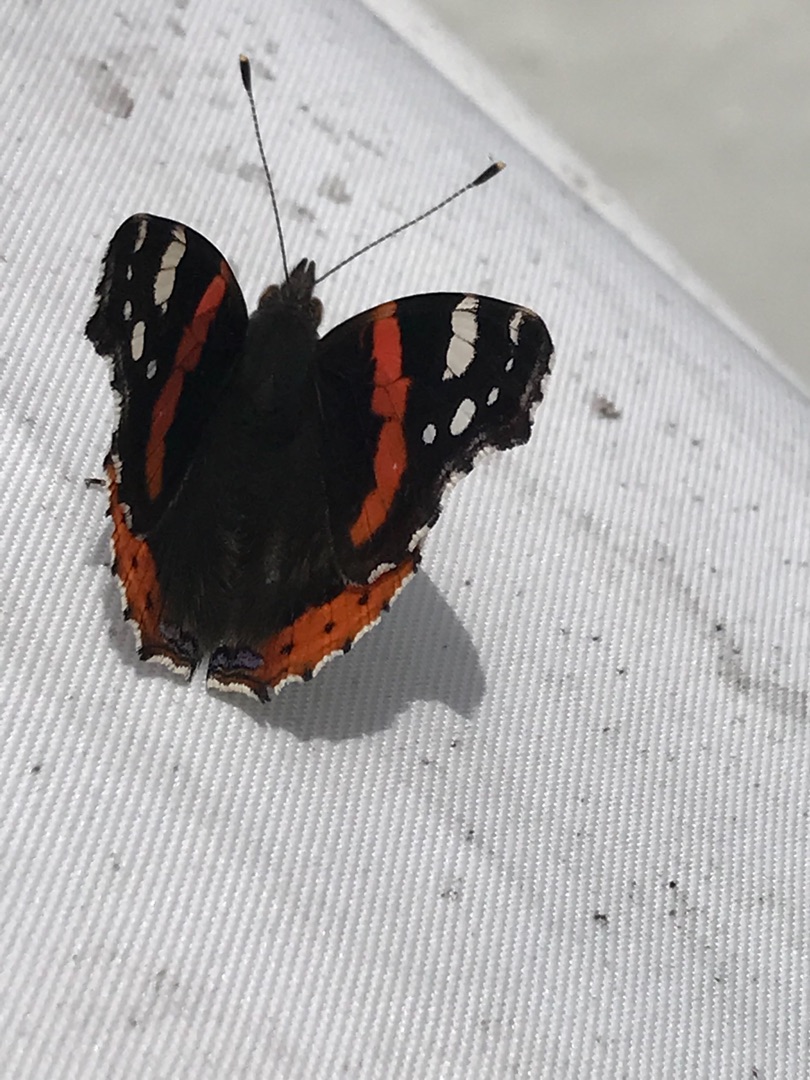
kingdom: Animalia
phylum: Arthropoda
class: Insecta
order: Lepidoptera
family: Nymphalidae
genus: Vanessa
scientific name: Vanessa atalanta
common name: Admiral
